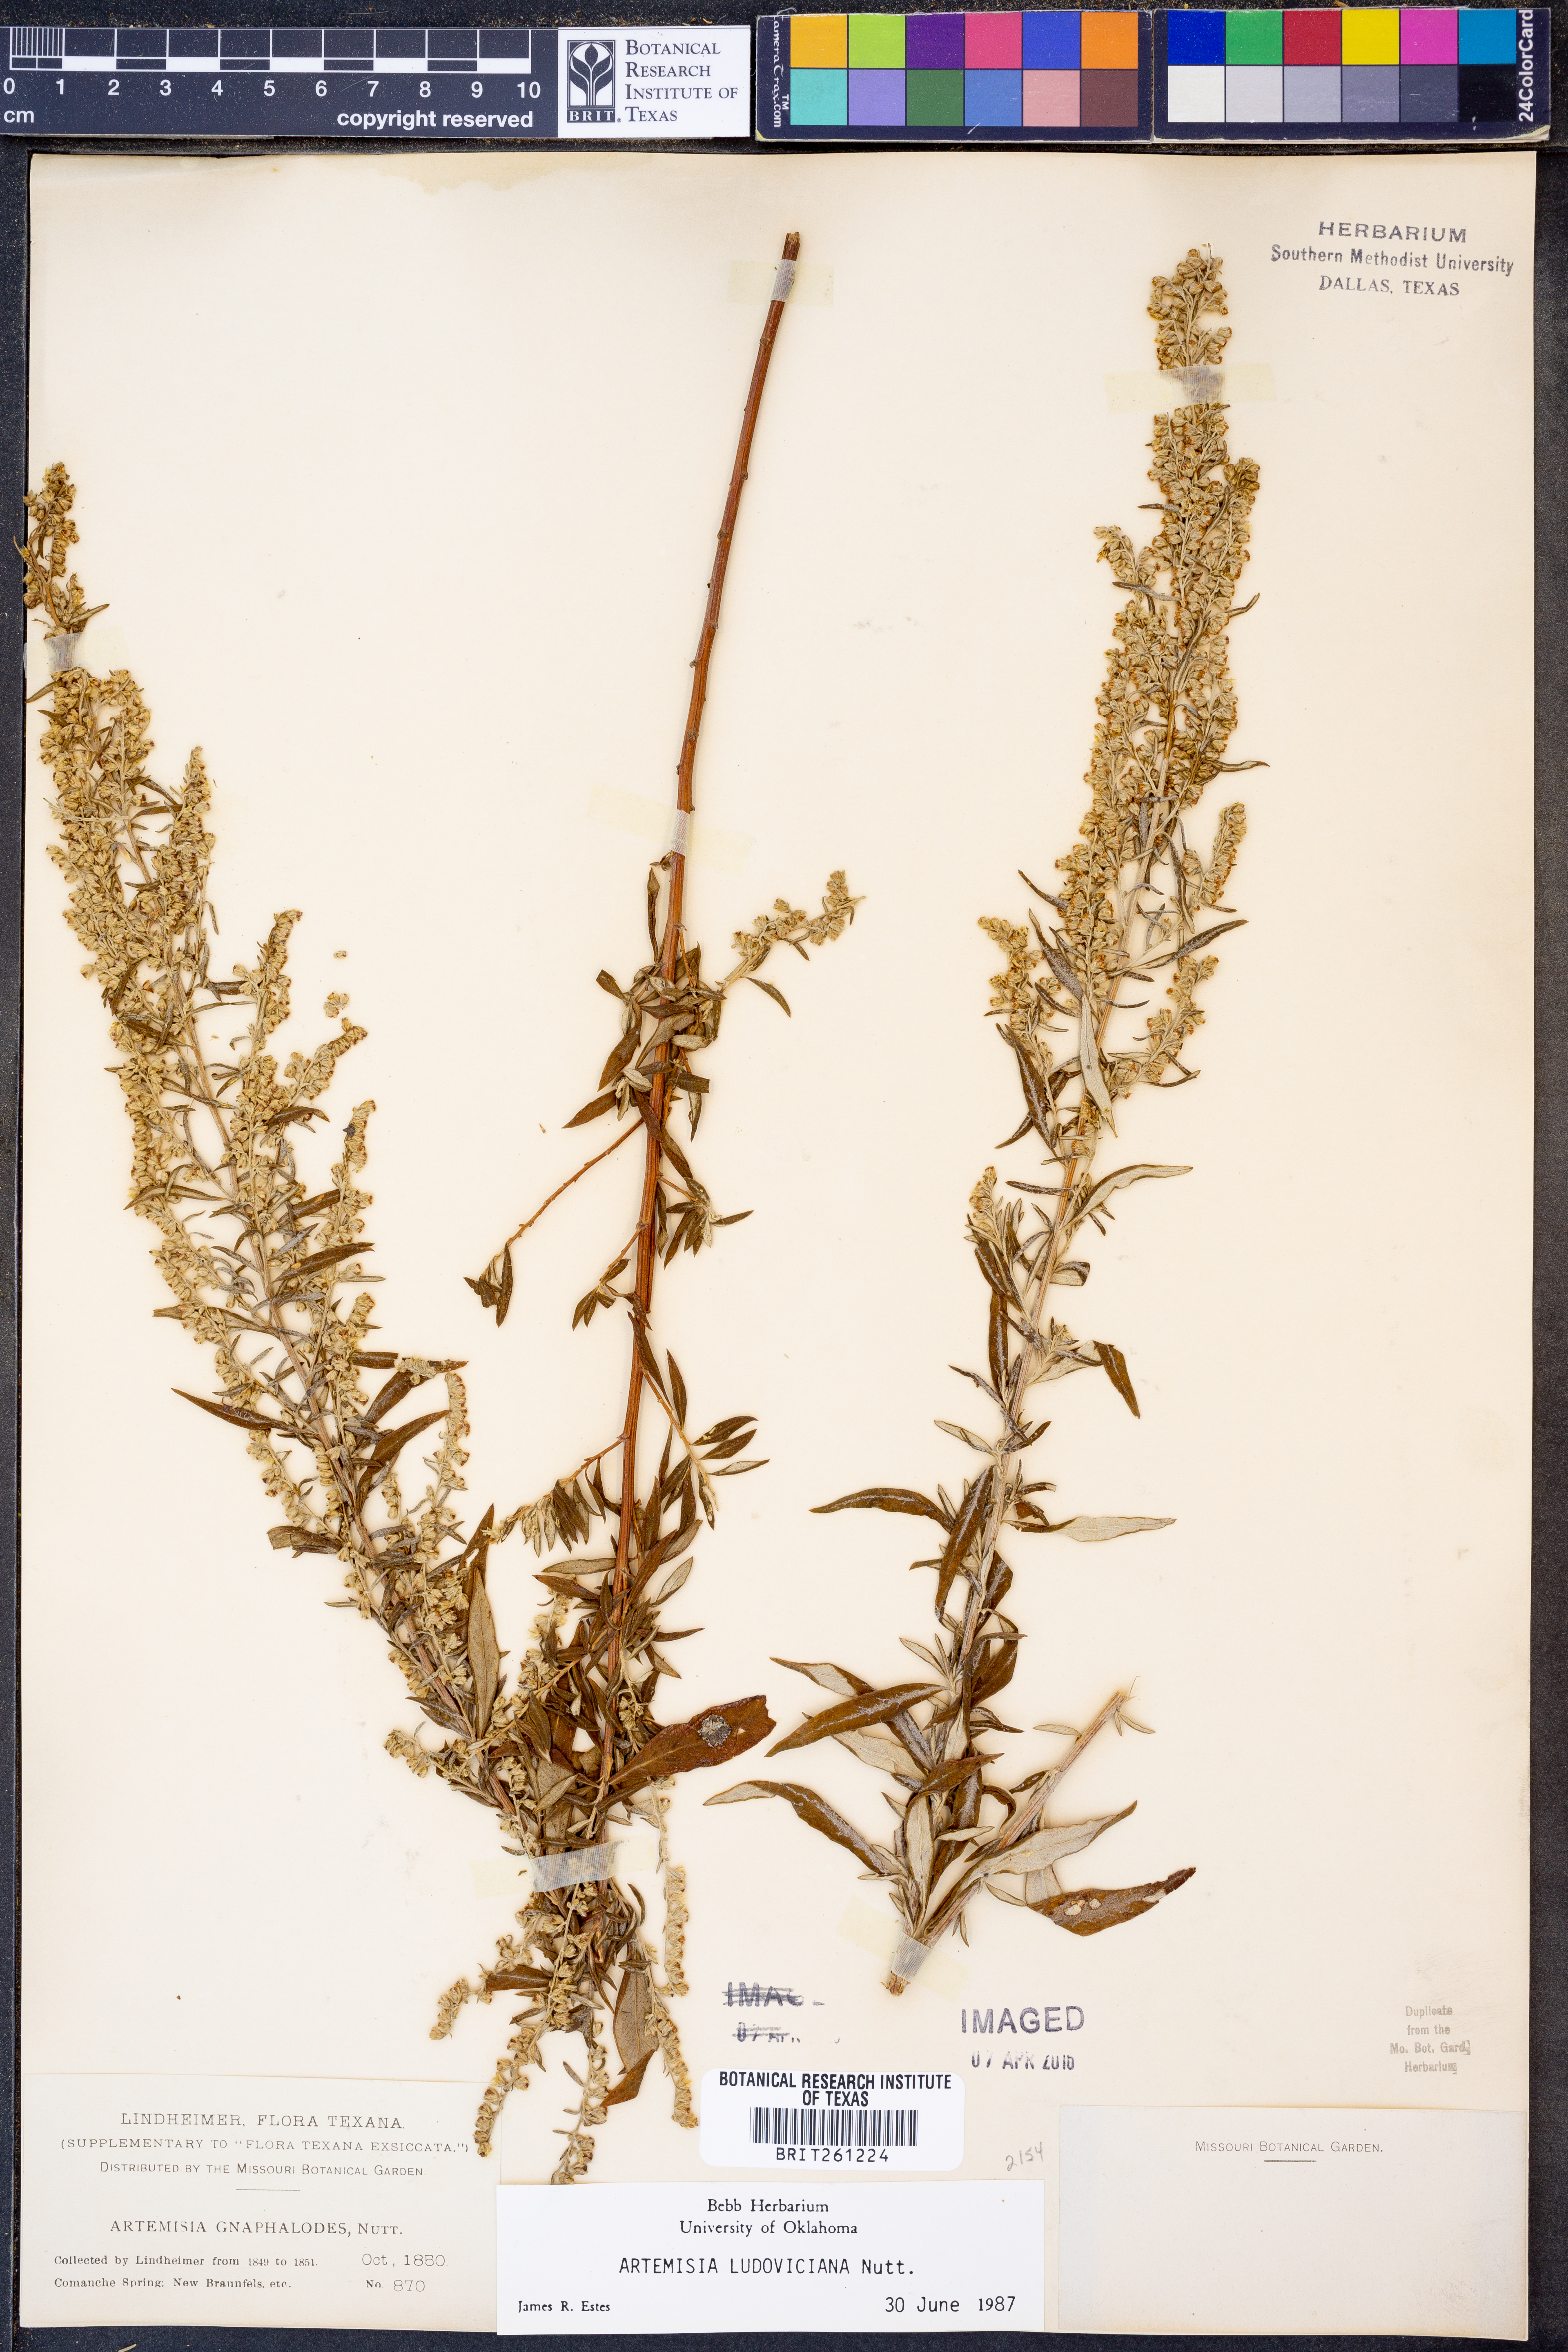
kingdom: Plantae
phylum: Tracheophyta
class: Magnoliopsida
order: Asterales
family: Asteraceae
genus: Artemisia
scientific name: Artemisia ludoviciana
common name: Western mugwort
